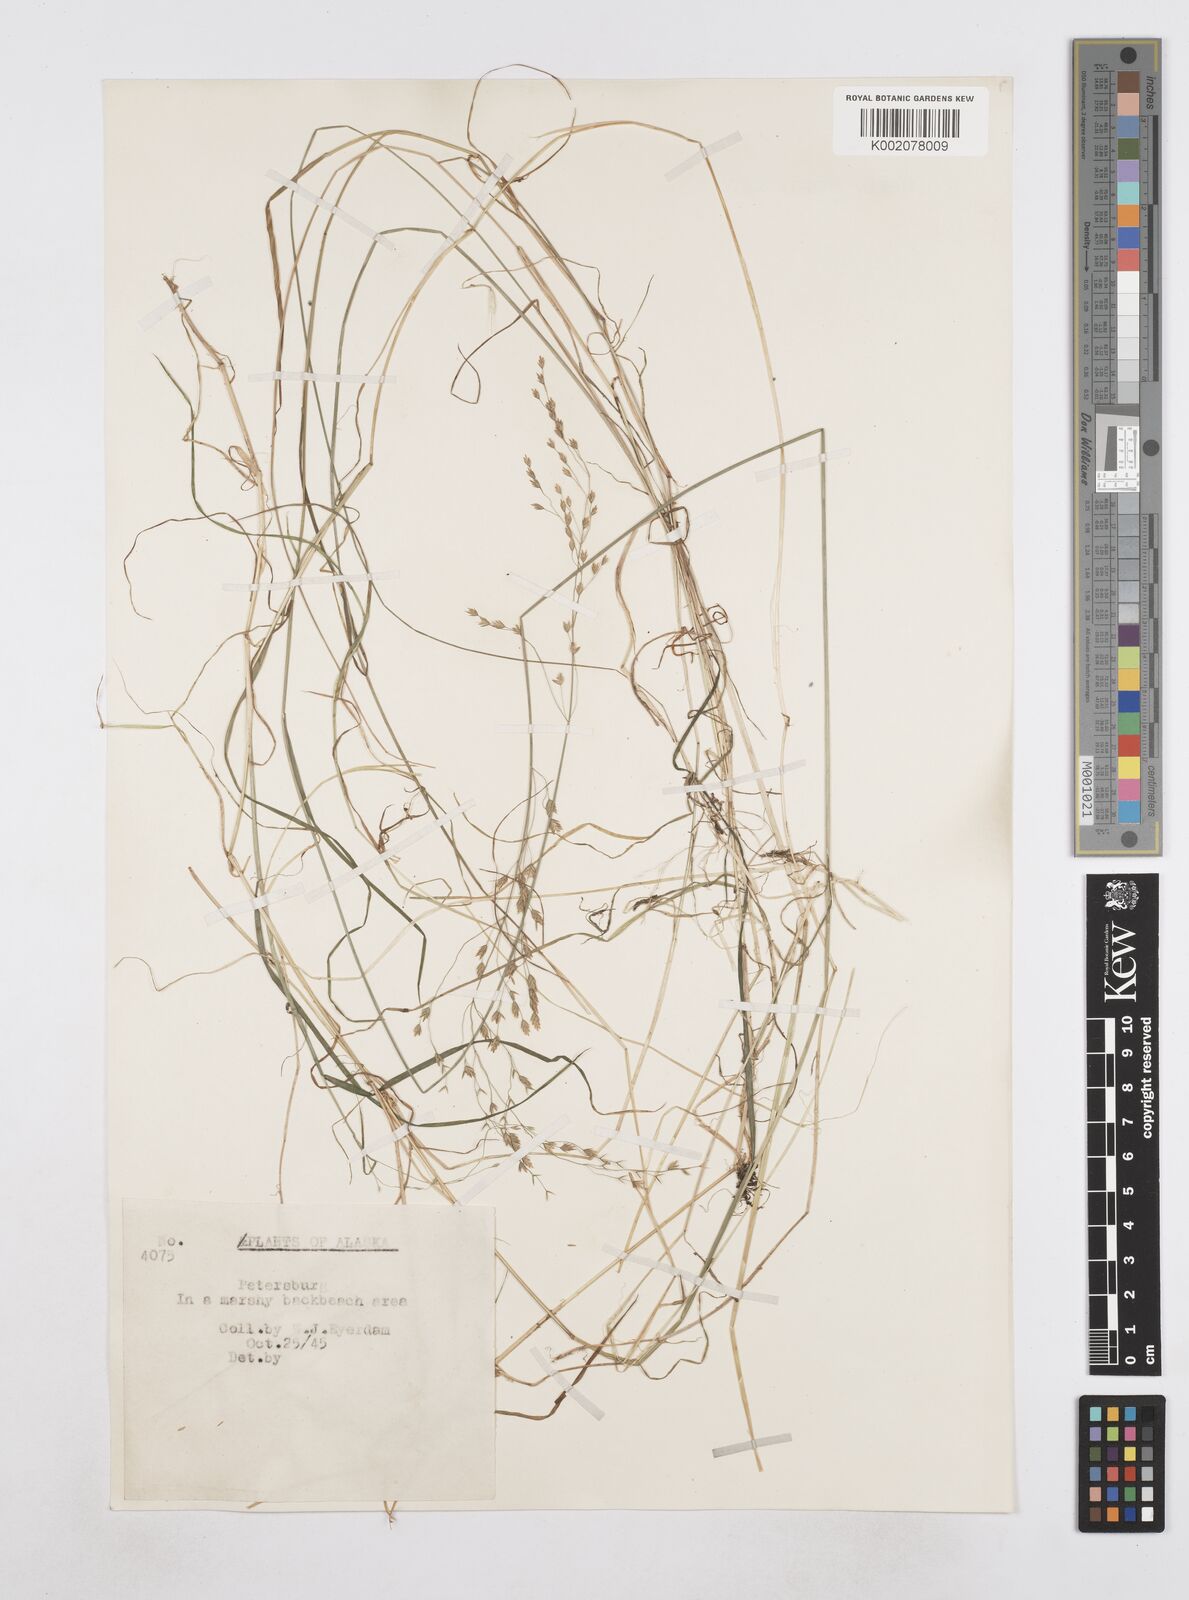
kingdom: Plantae
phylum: Tracheophyta
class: Liliopsida
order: Poales
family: Poaceae
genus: Poa
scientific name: Poa
